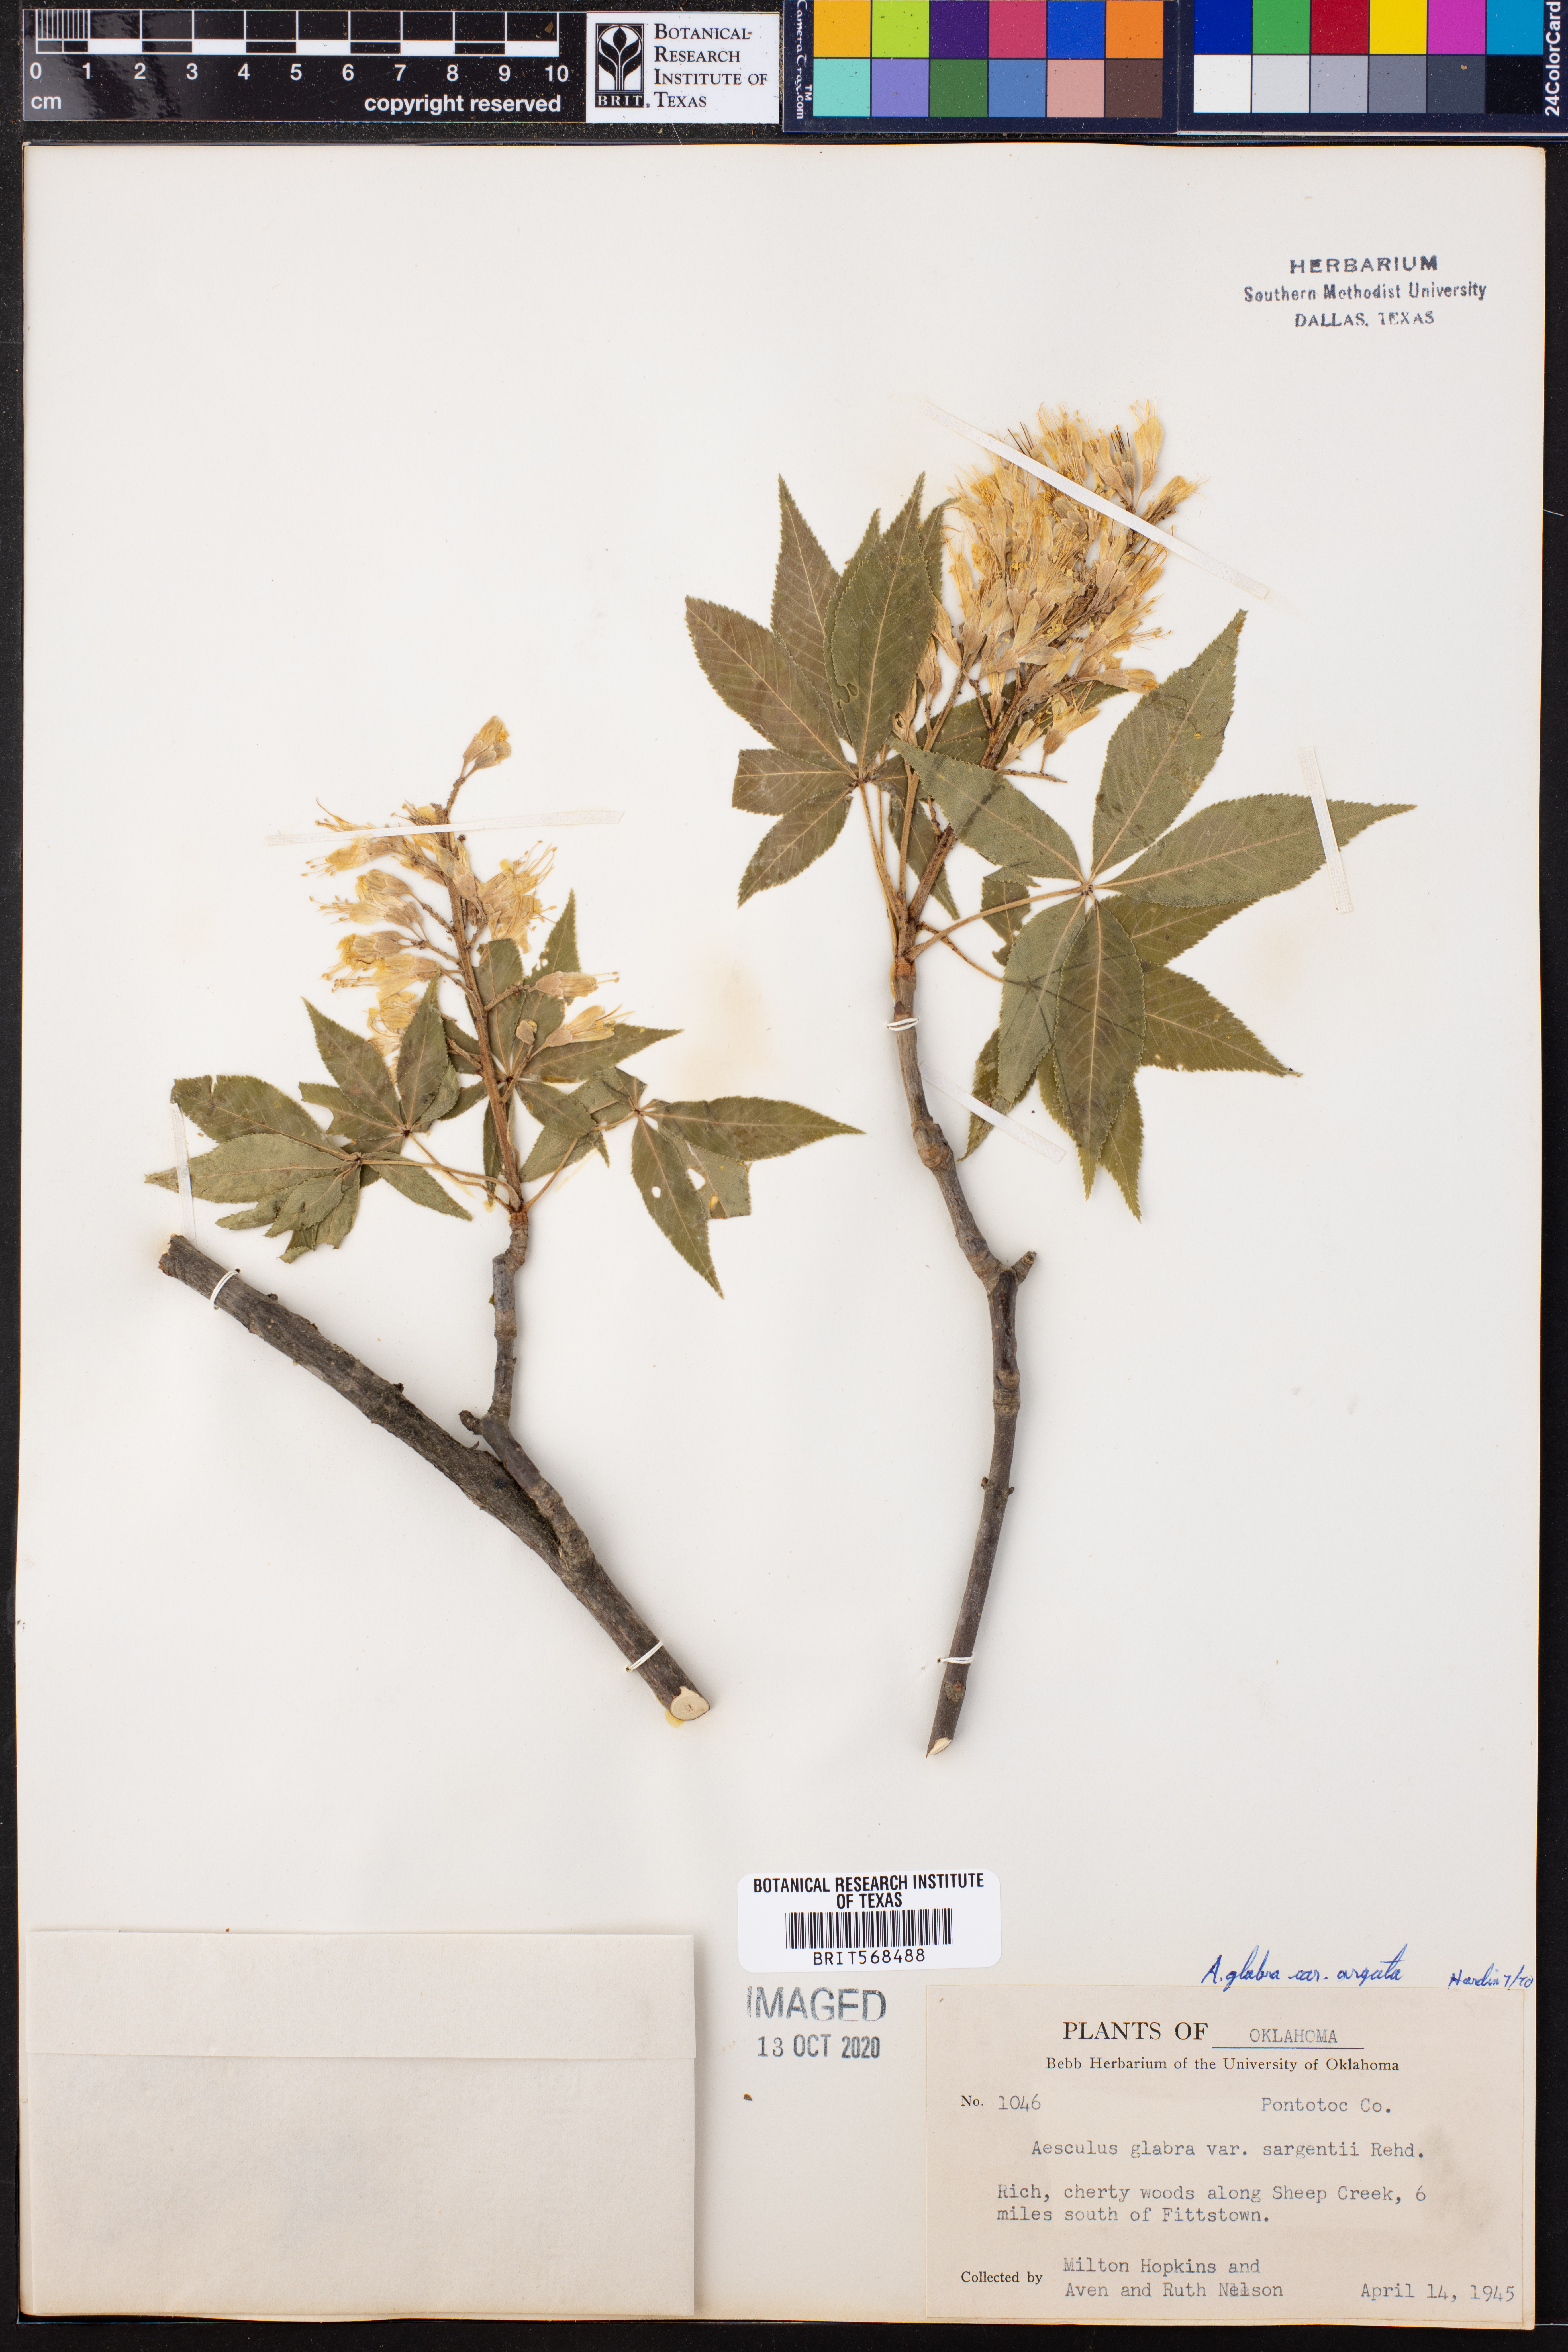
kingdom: Plantae
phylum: Tracheophyta
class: Magnoliopsida
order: Sapindales
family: Sapindaceae
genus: Aesculus
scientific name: Aesculus glabra
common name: Ohio buckeye
